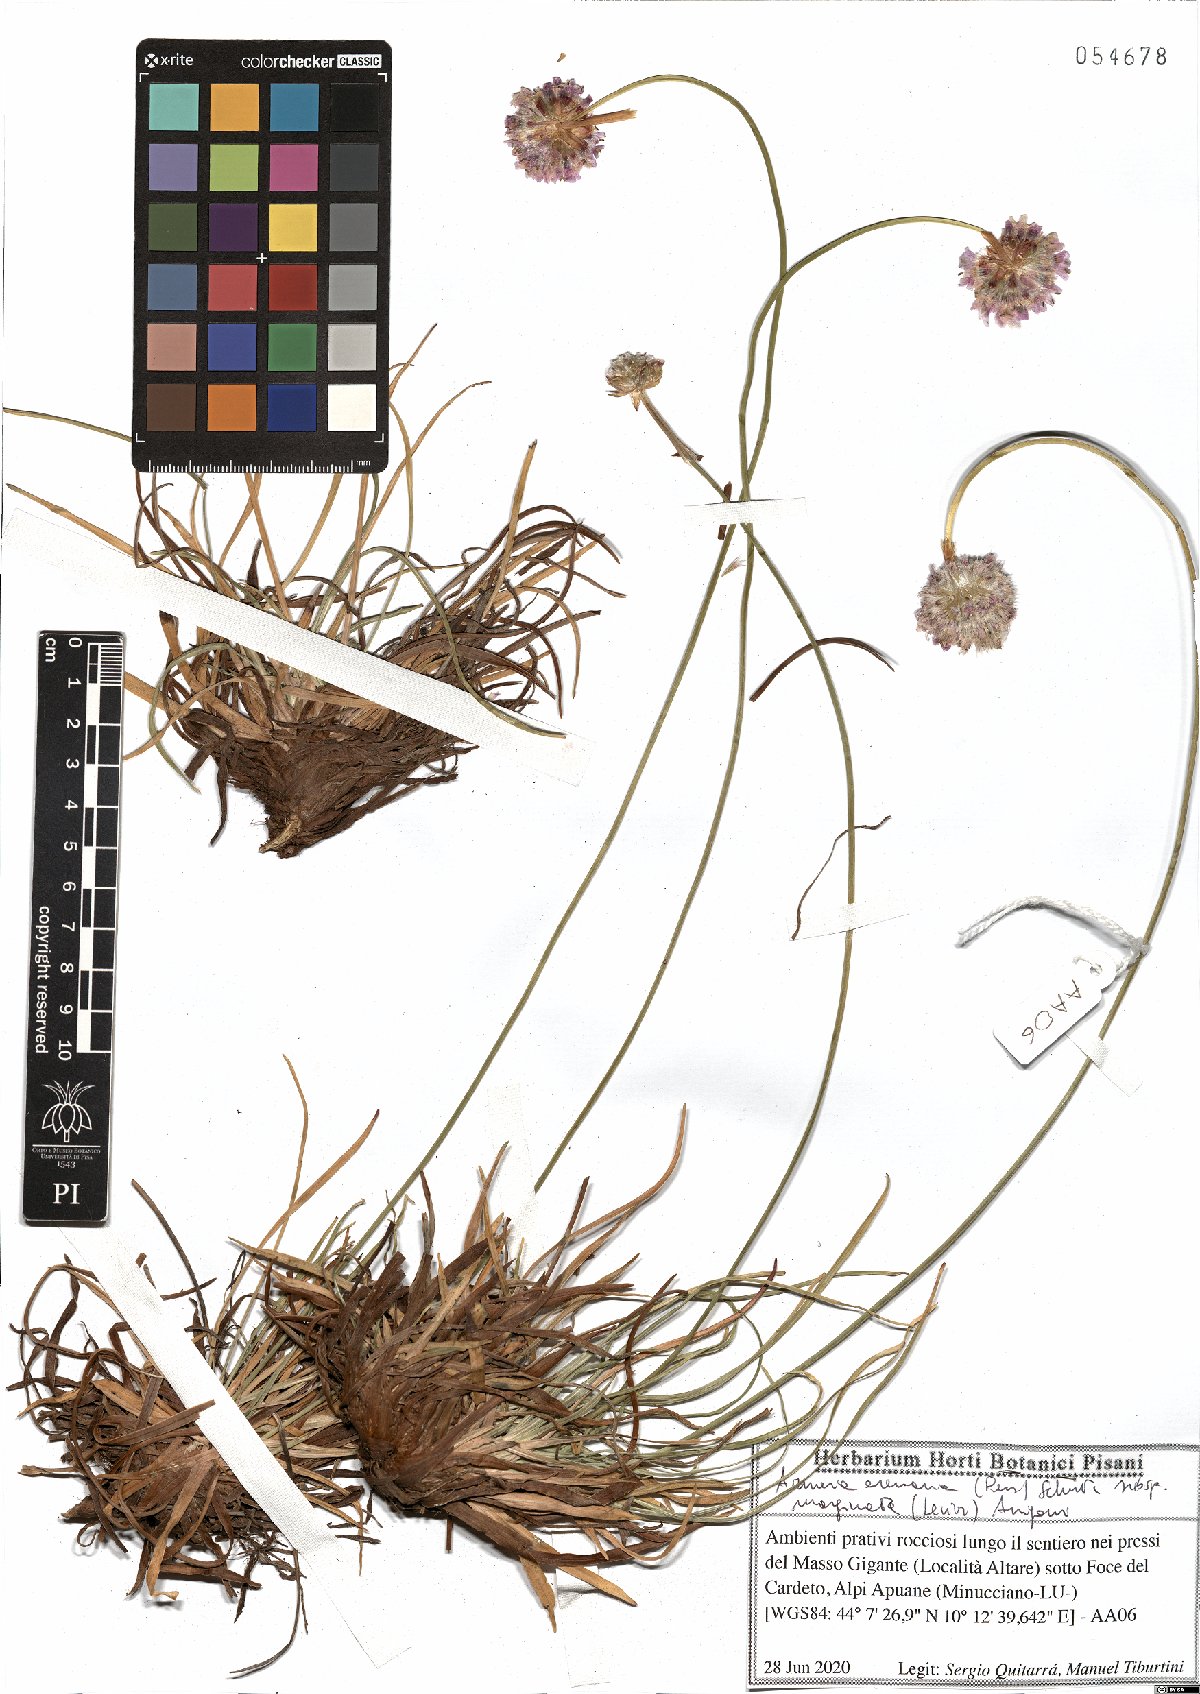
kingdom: Plantae
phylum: Tracheophyta
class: Magnoliopsida
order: Caryophyllales
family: Plumbaginaceae
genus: Armeria
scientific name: Armeria arenaria
